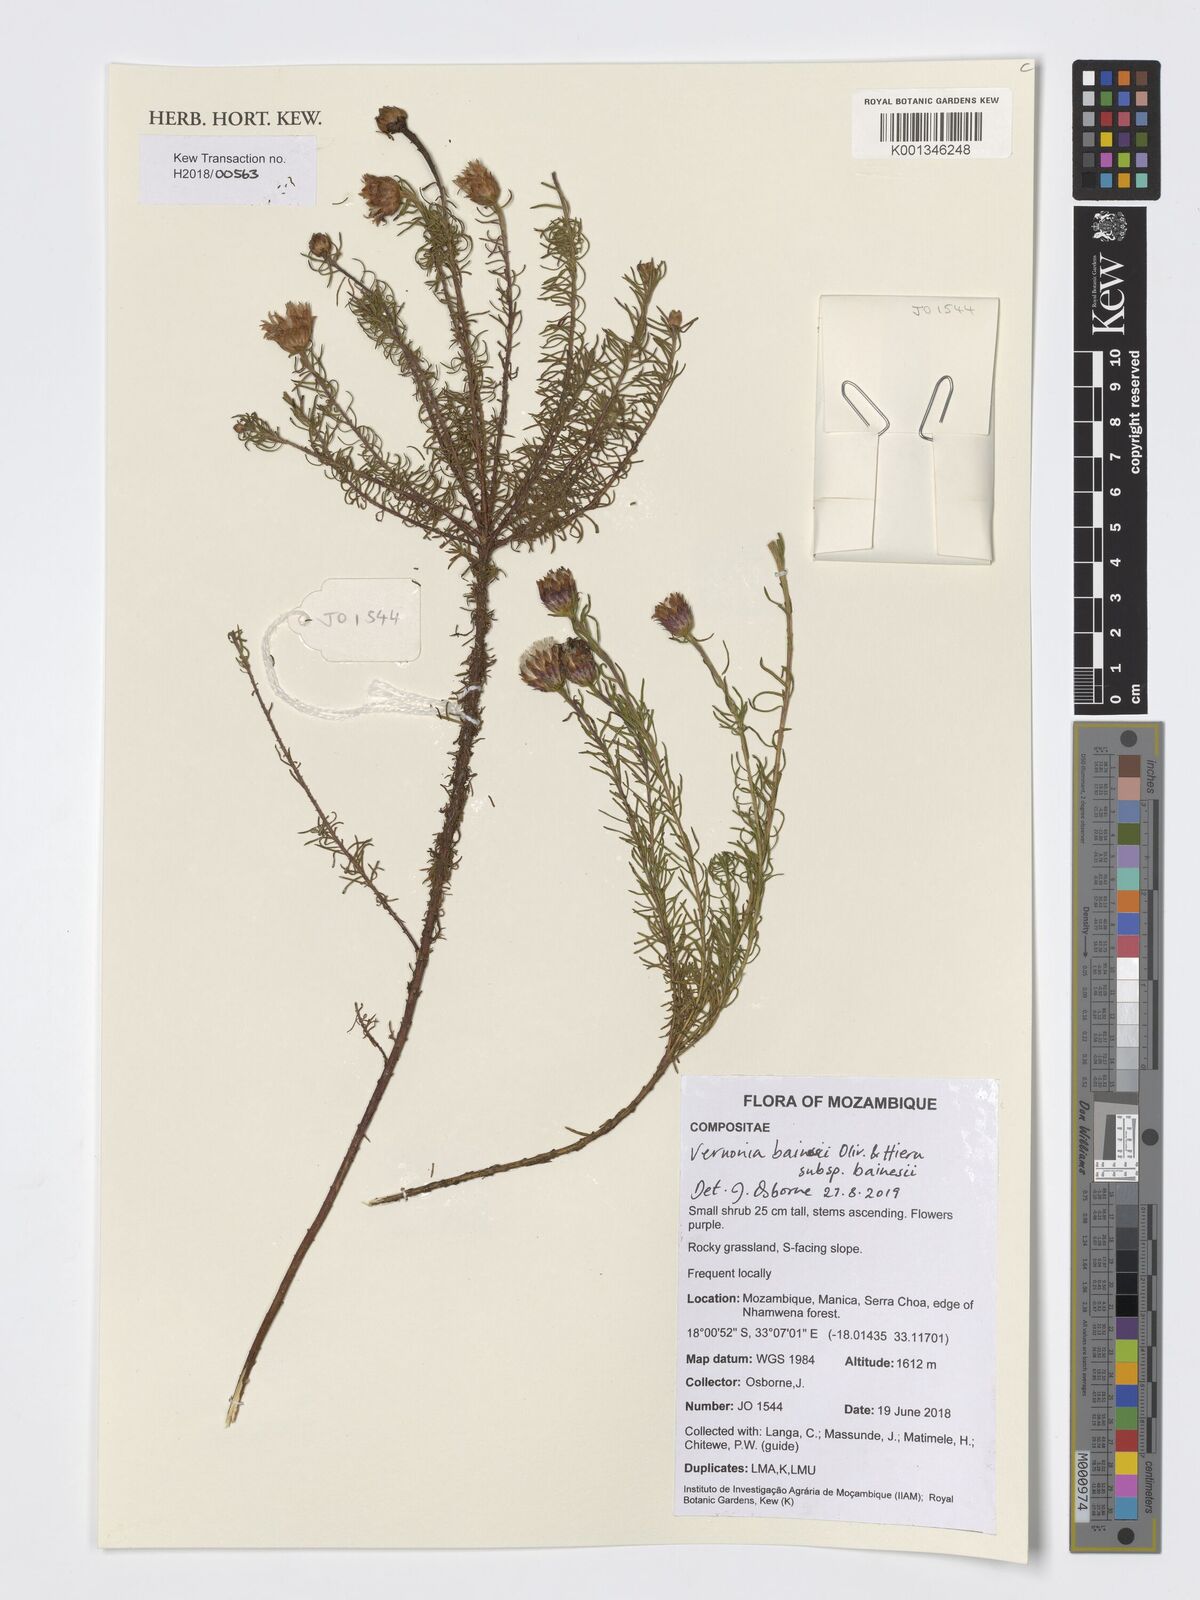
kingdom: Plantae
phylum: Tracheophyta
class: Magnoliopsida
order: Asterales
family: Asteraceae
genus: Crystallopollen
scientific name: Crystallopollen bainesii
